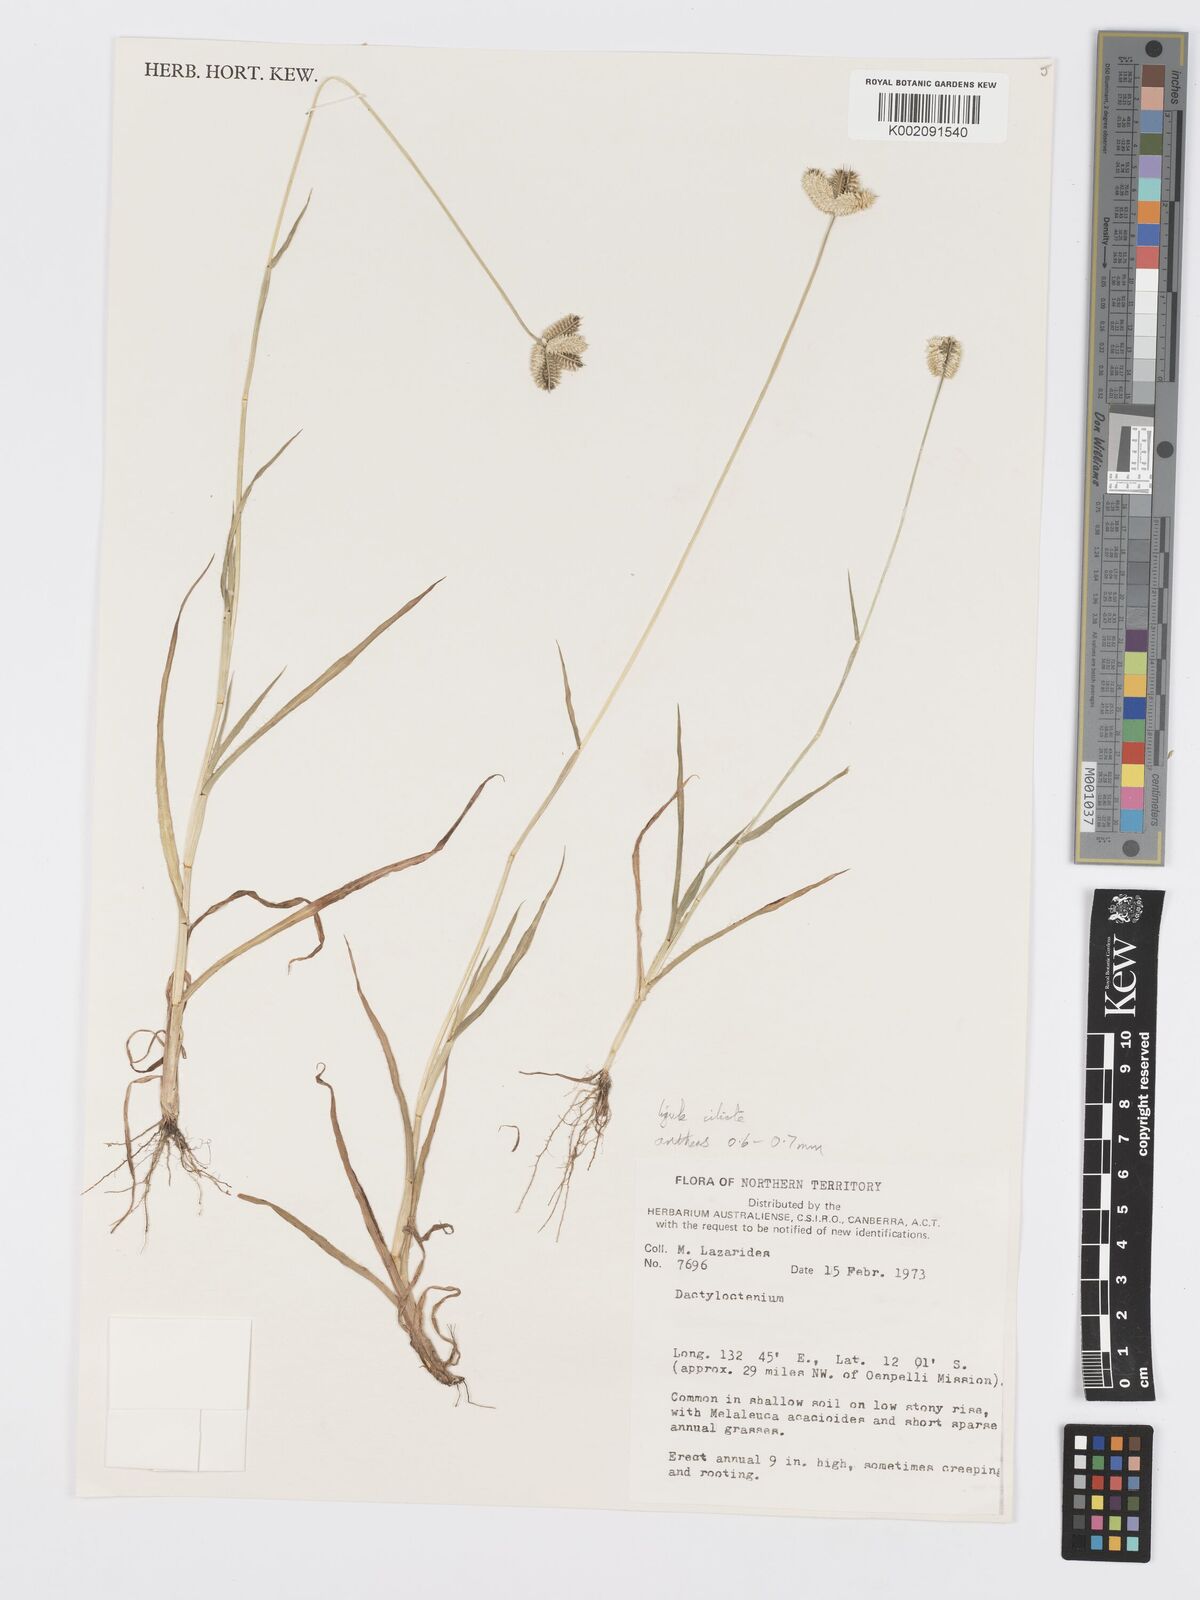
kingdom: Plantae
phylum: Tracheophyta
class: Liliopsida
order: Poales
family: Poaceae
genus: Dactyloctenium
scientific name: Dactyloctenium radulans
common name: Button-grass
